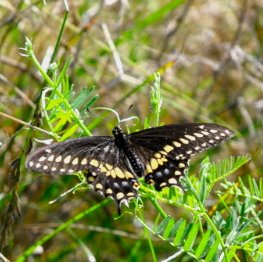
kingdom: Animalia
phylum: Arthropoda
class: Insecta
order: Lepidoptera
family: Papilionidae
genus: Papilio
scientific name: Papilio polyxenes
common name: Black Swallowtail
